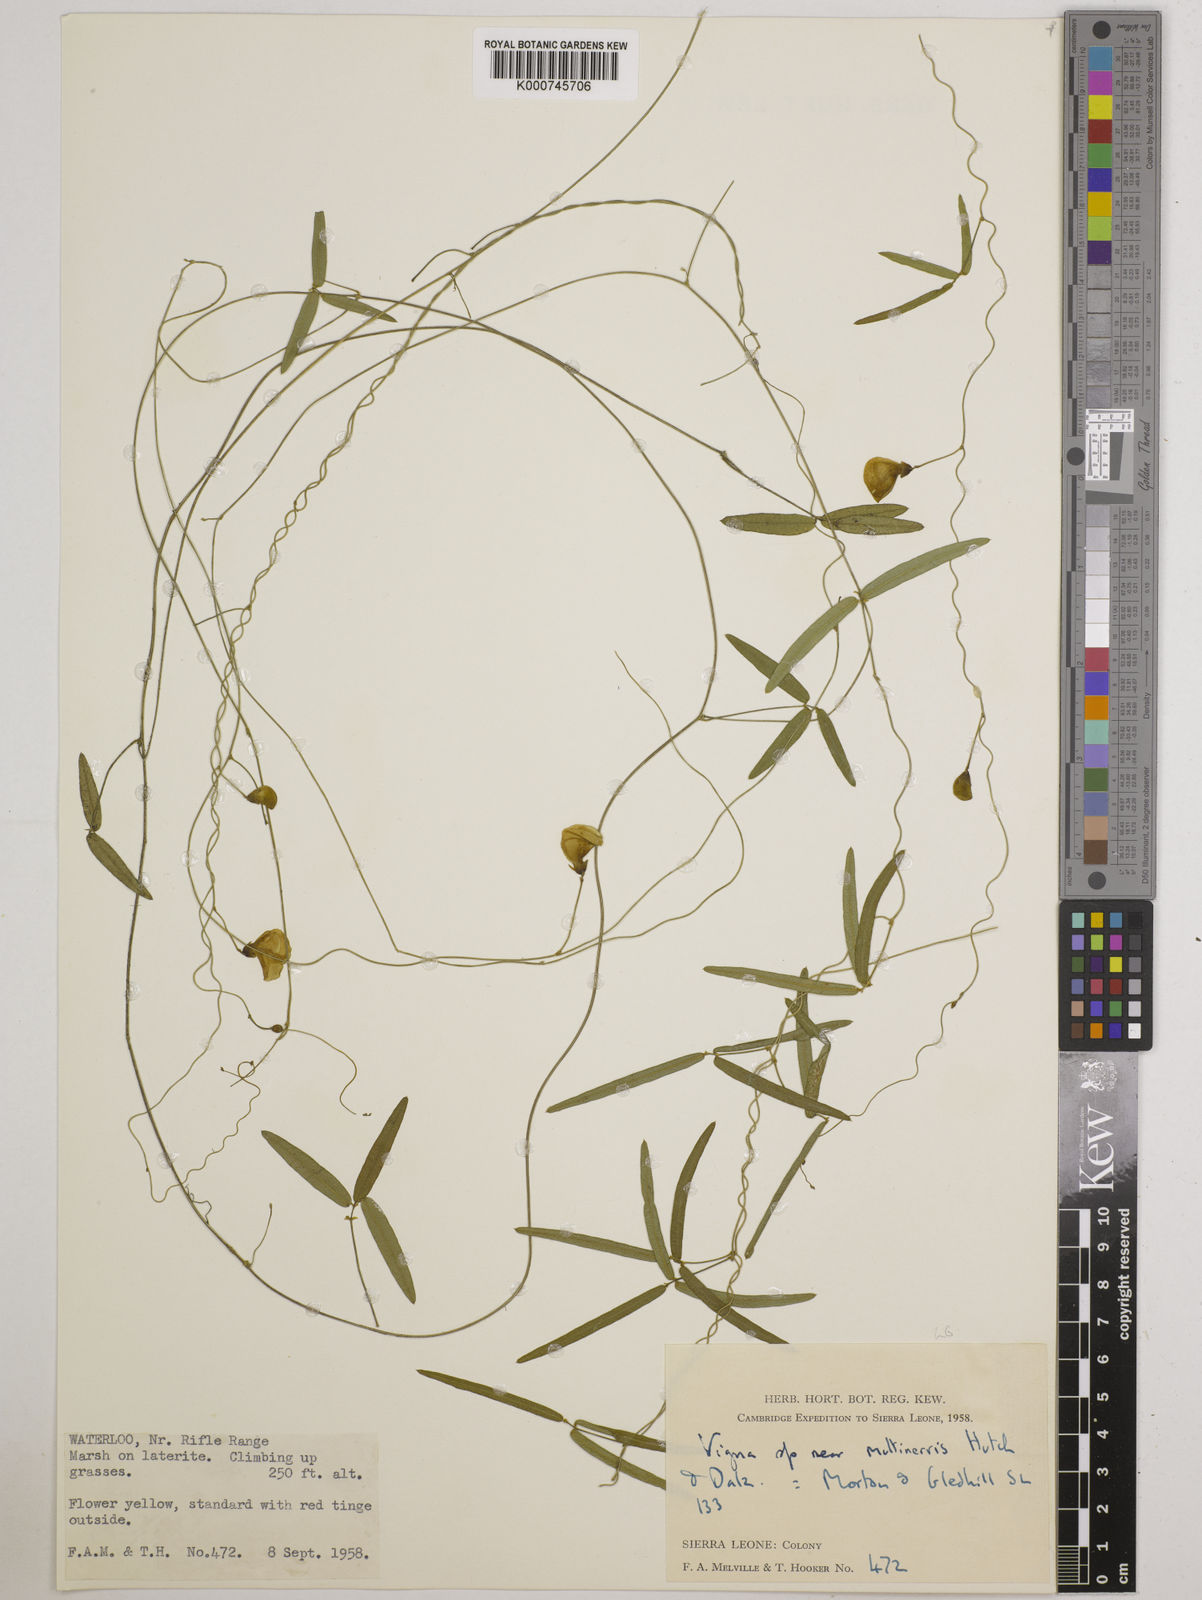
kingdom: Plantae
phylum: Tracheophyta
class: Magnoliopsida
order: Fabales
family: Fabaceae
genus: Vigna
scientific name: Vigna multinervis
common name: Fula-pulaar
